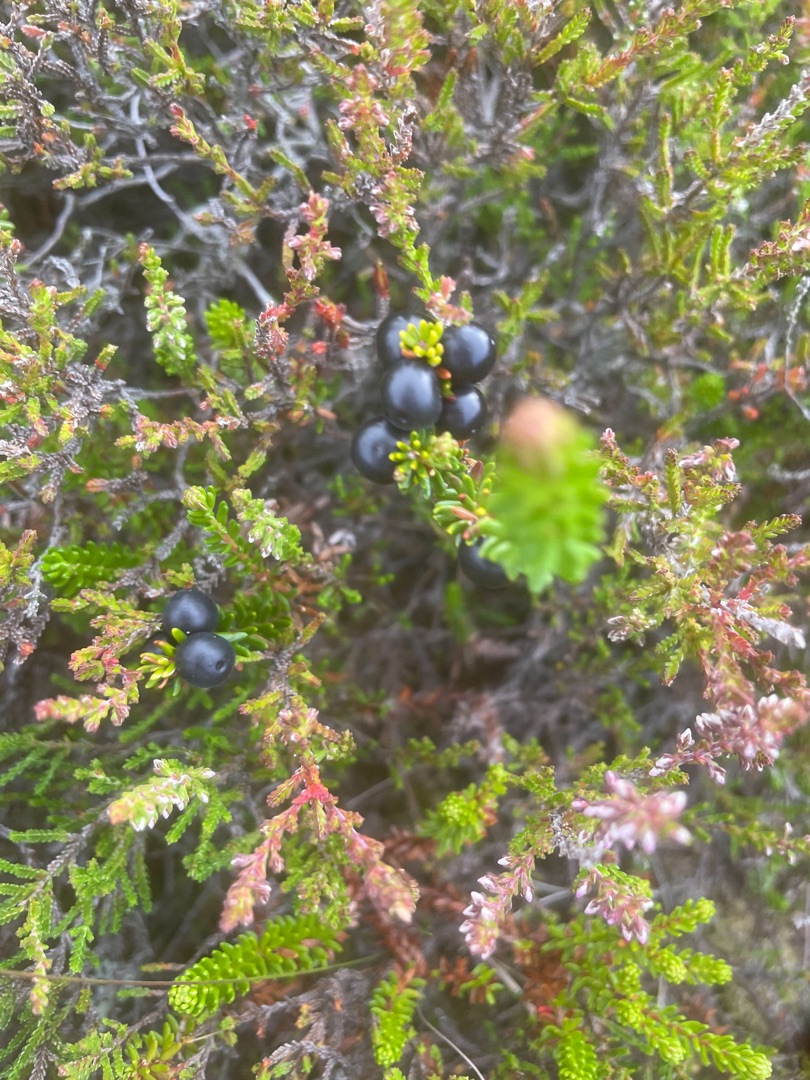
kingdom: Plantae
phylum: Tracheophyta
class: Magnoliopsida
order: Ericales
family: Ericaceae
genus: Empetrum
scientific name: Empetrum nigrum
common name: Revling
